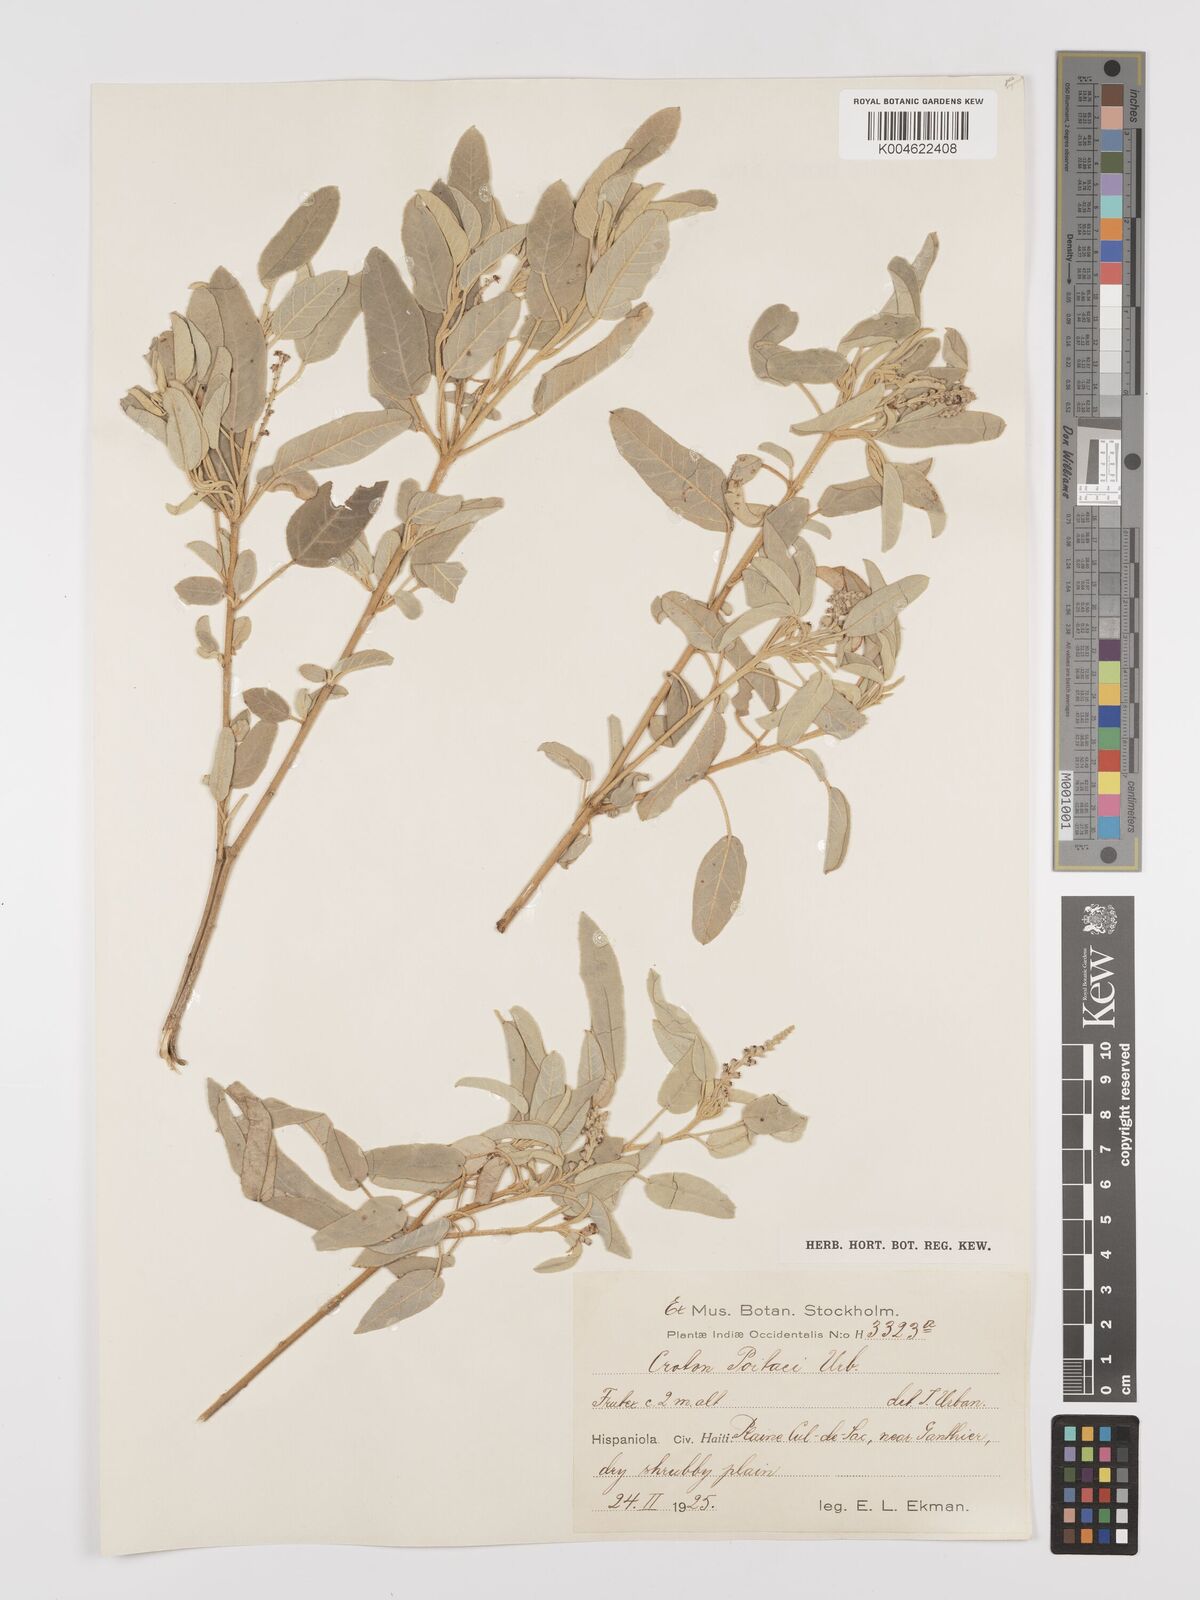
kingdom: Plantae
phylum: Tracheophyta
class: Magnoliopsida
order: Malpighiales
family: Euphorbiaceae
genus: Croton
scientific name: Croton poitaei
